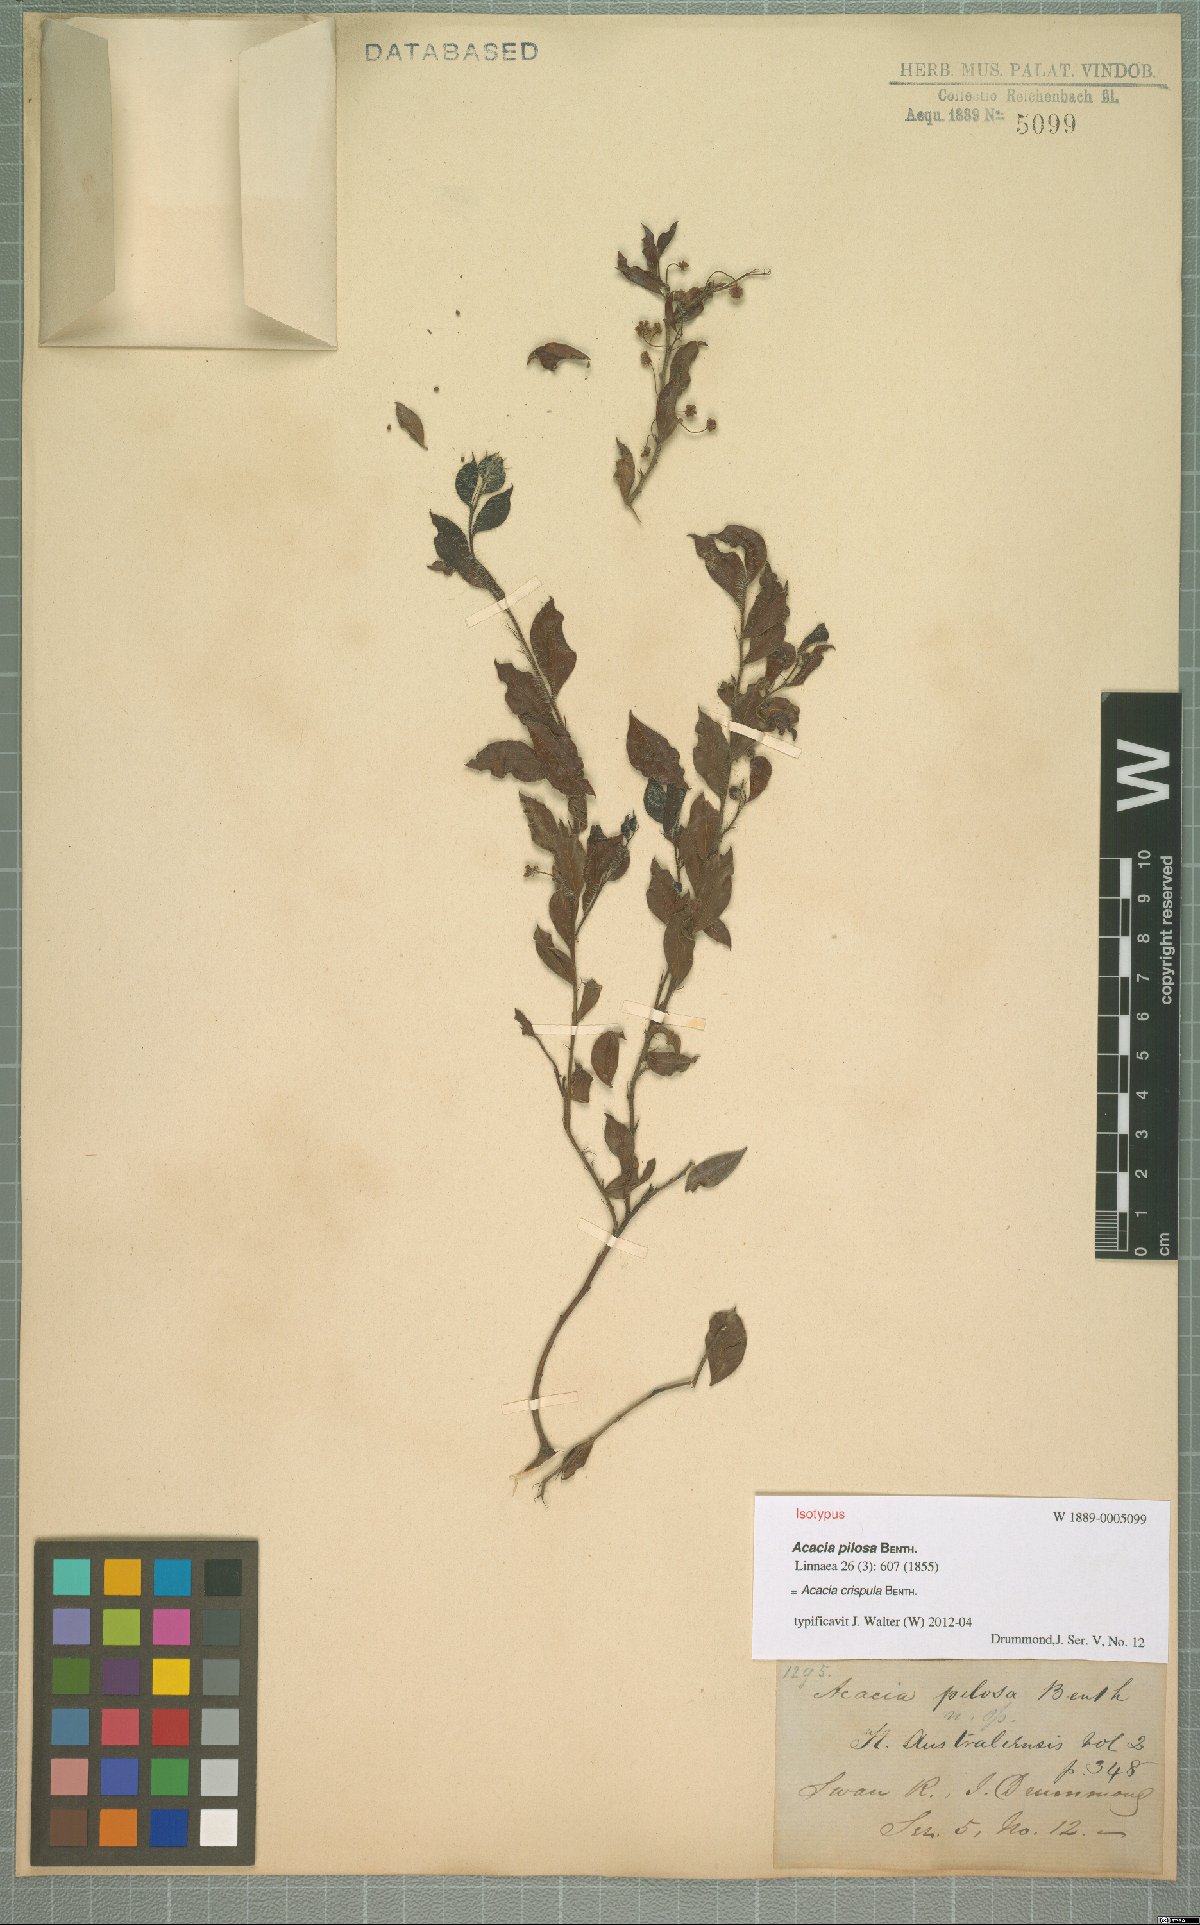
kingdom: Plantae
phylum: Tracheophyta
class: Magnoliopsida
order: Fabales
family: Fabaceae
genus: Acacia
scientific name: Acacia crispula
